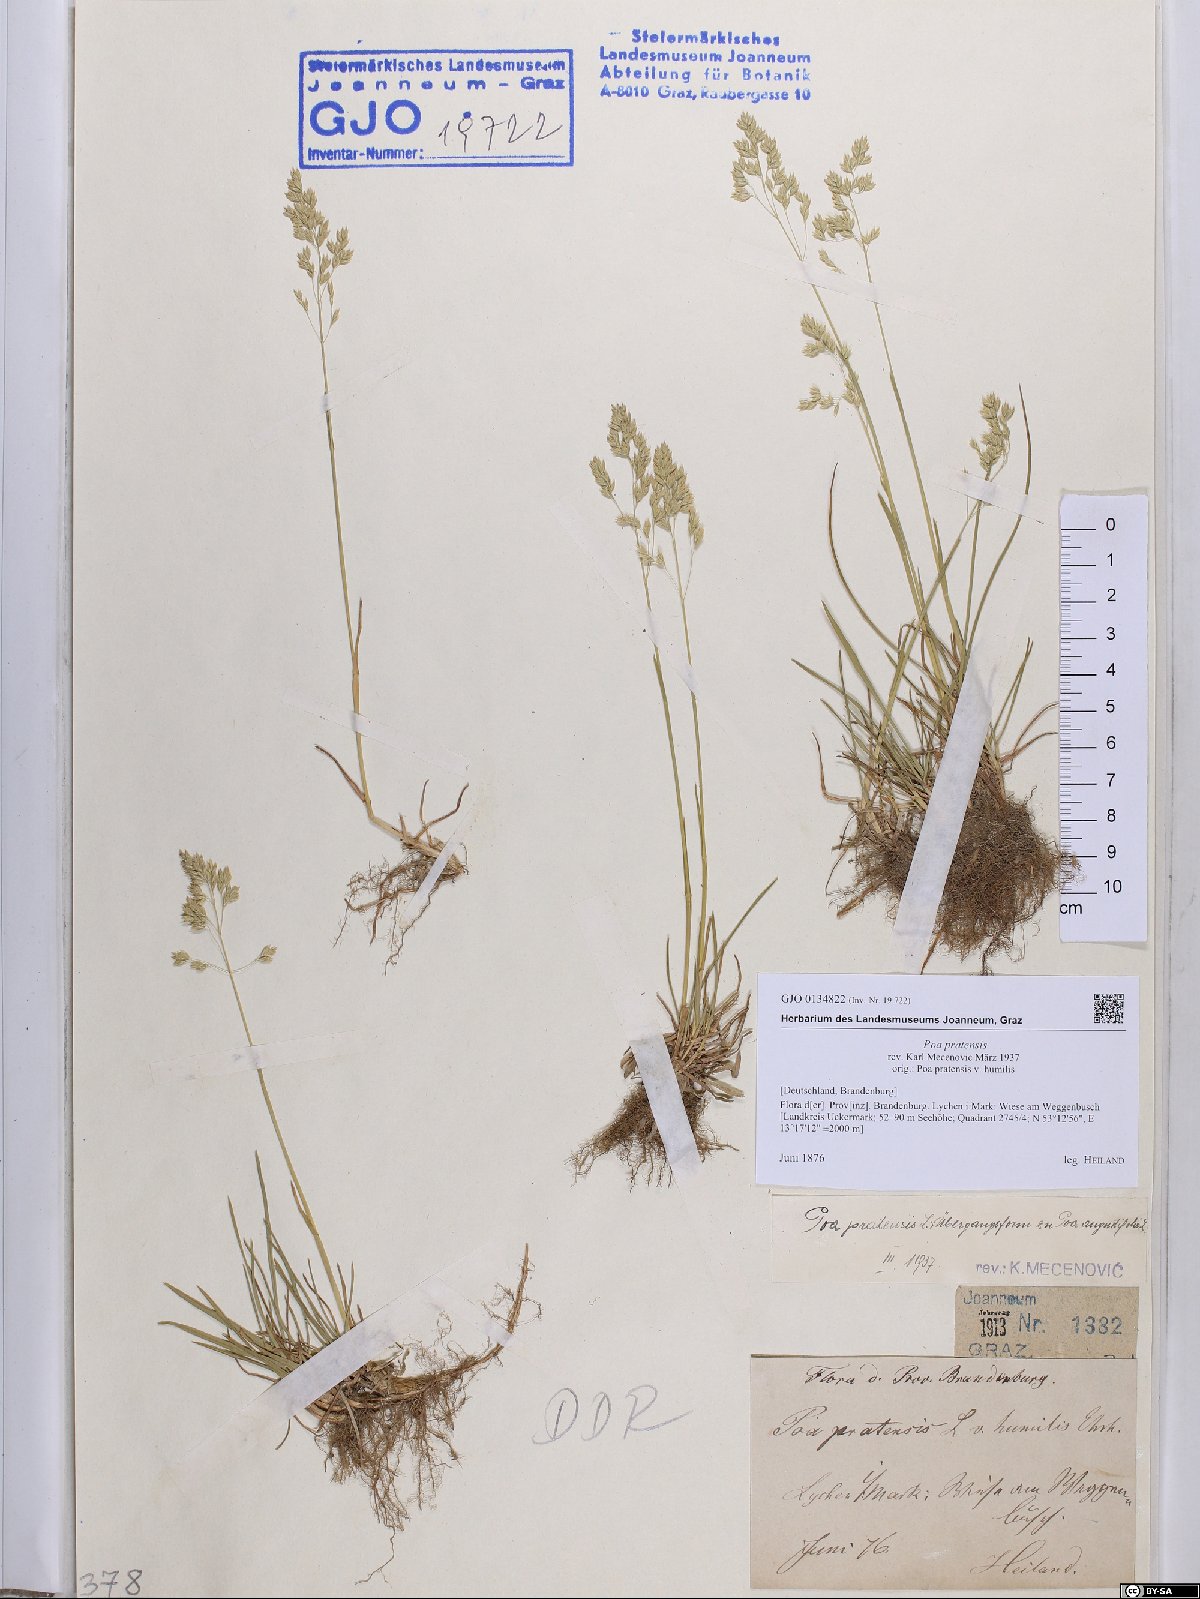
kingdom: Plantae
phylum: Tracheophyta
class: Liliopsida
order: Poales
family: Poaceae
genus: Poa
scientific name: Poa pratensis
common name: Kentucky bluegrass
